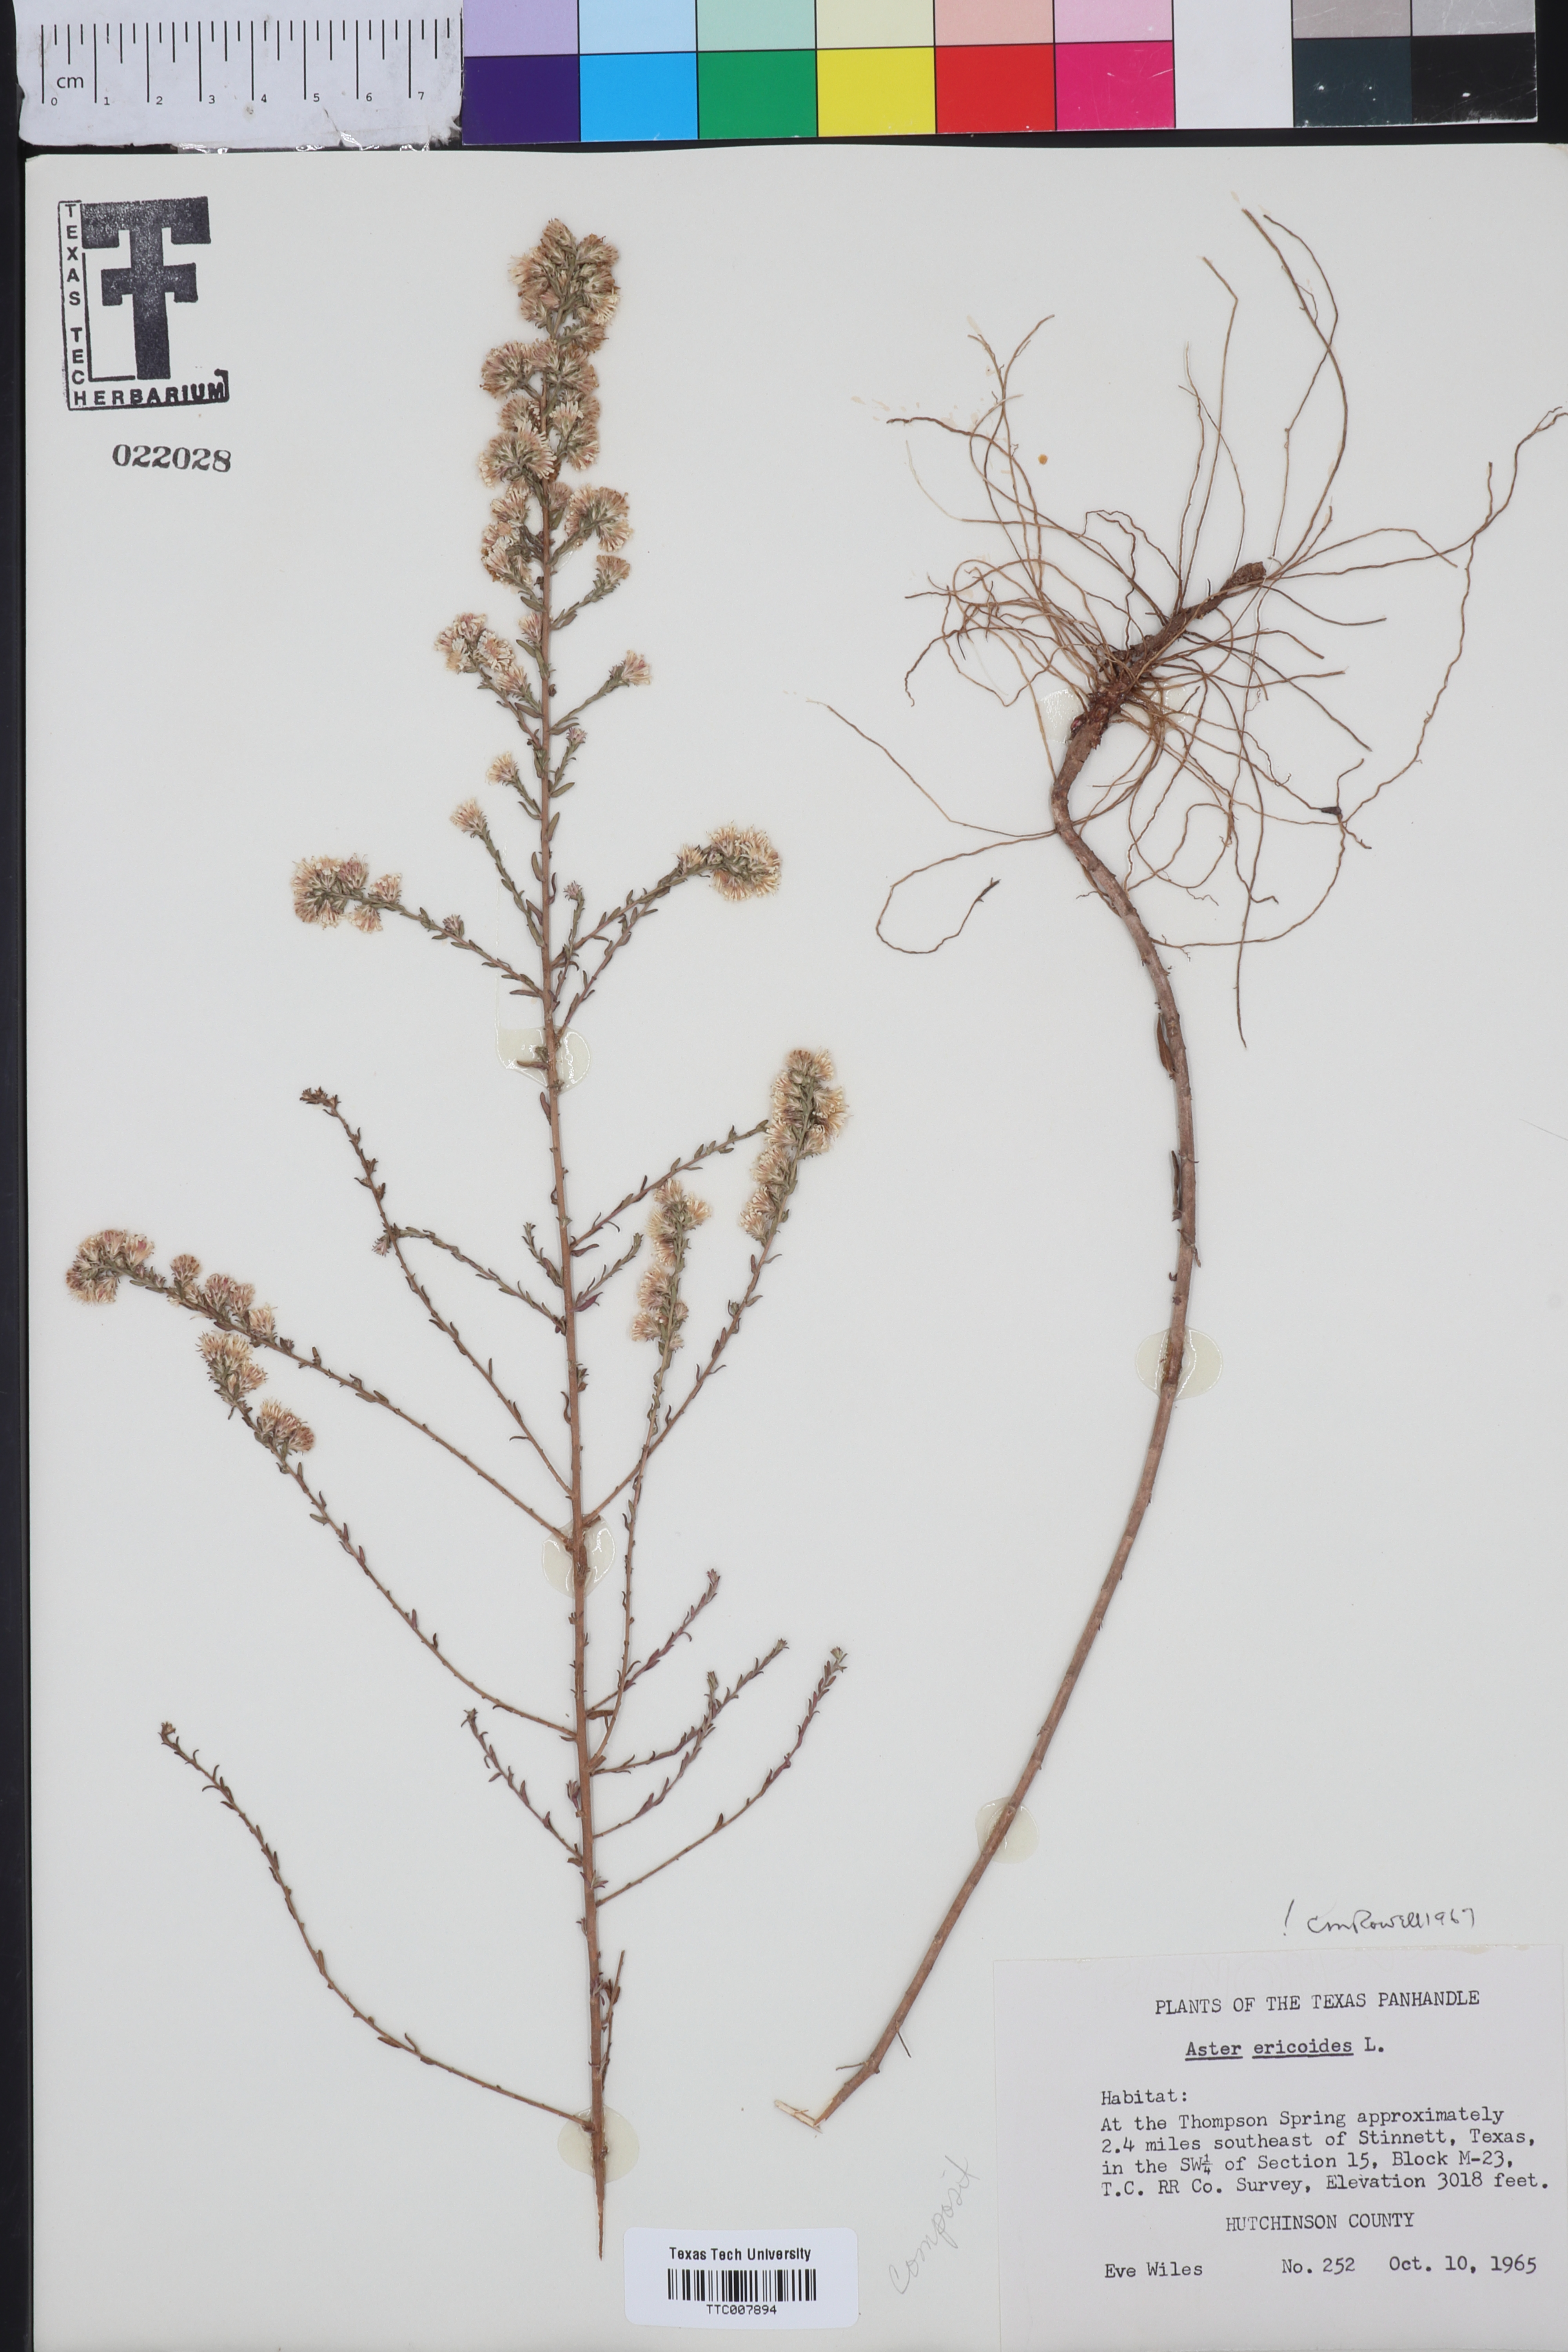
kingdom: Plantae
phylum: Tracheophyta
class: Magnoliopsida
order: Asterales
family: Asteraceae
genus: Symphyotrichum
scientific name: Symphyotrichum ericoides
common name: Heath aster
